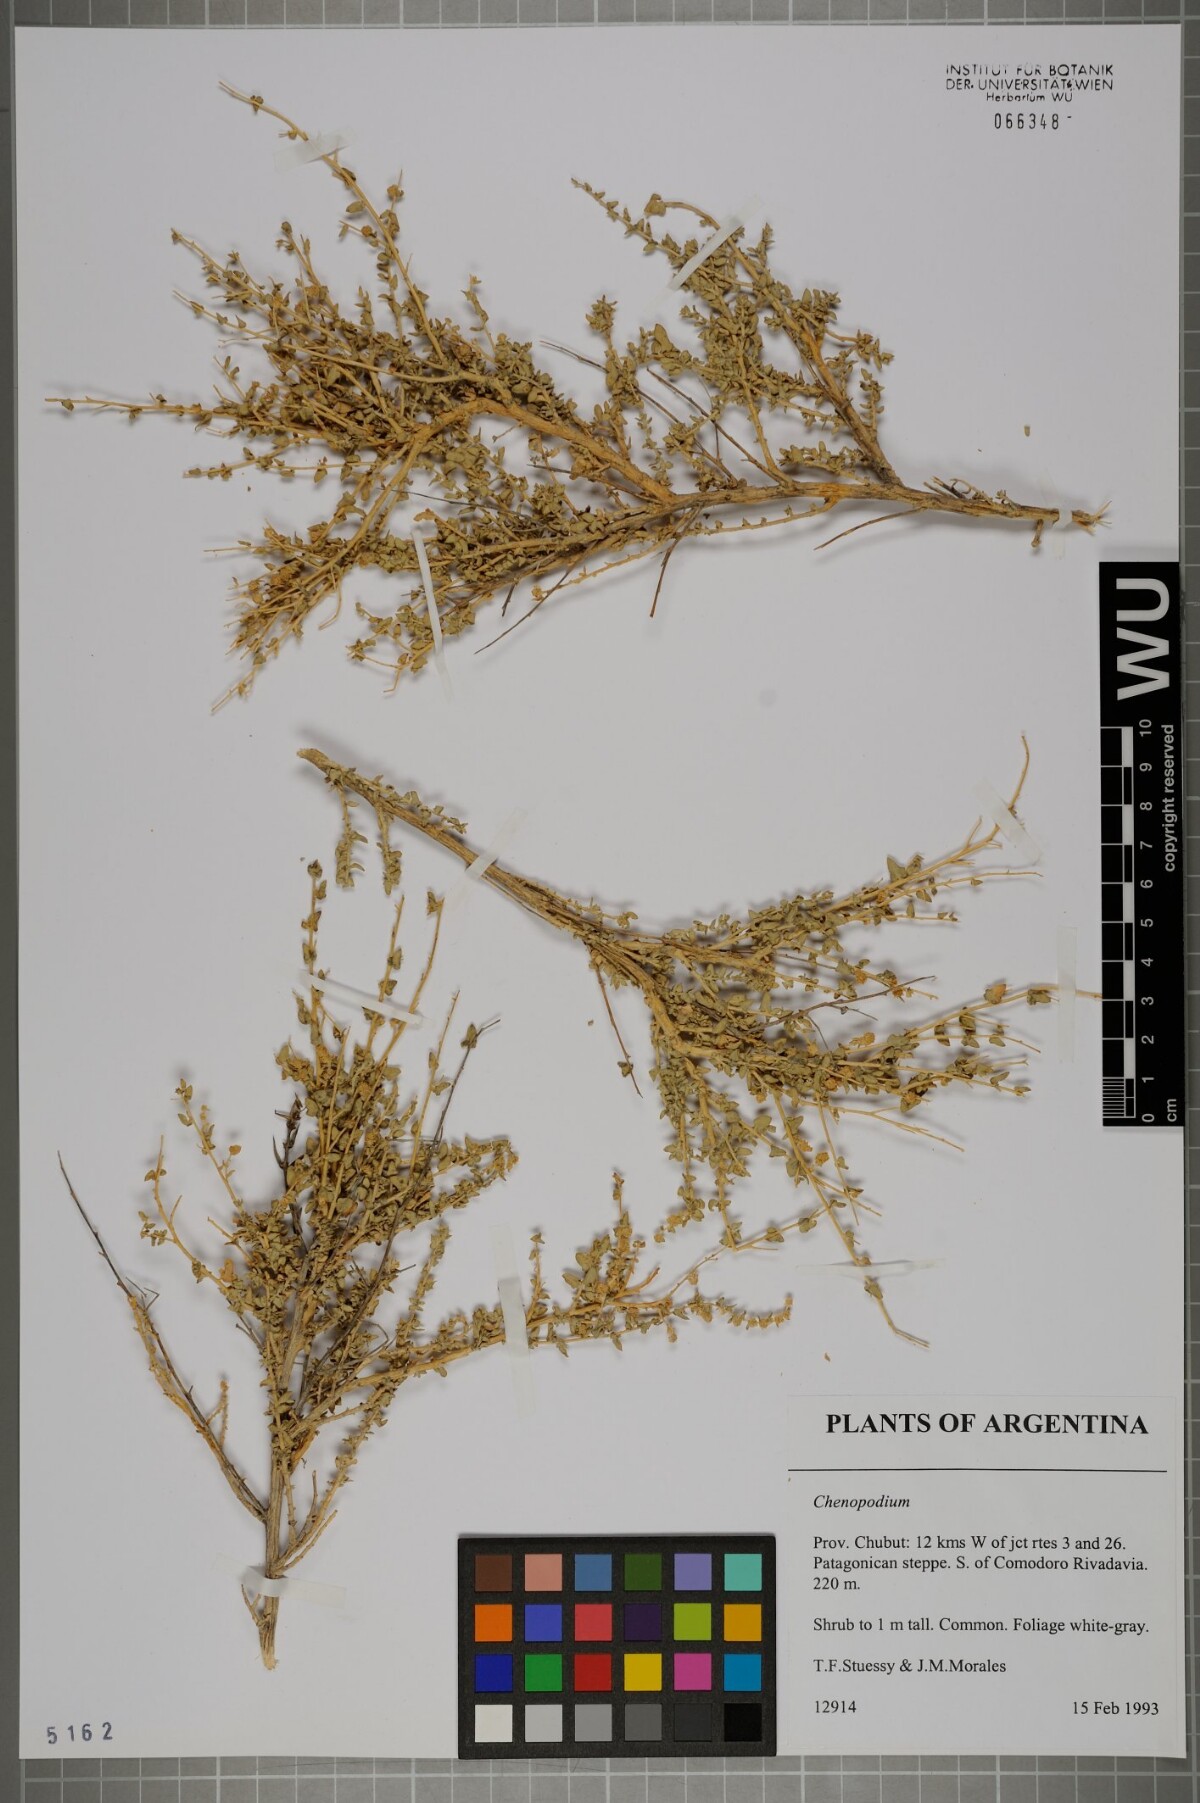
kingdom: Plantae
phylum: Tracheophyta
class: Magnoliopsida
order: Caryophyllales
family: Amaranthaceae
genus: Chenopodium
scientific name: Chenopodium
